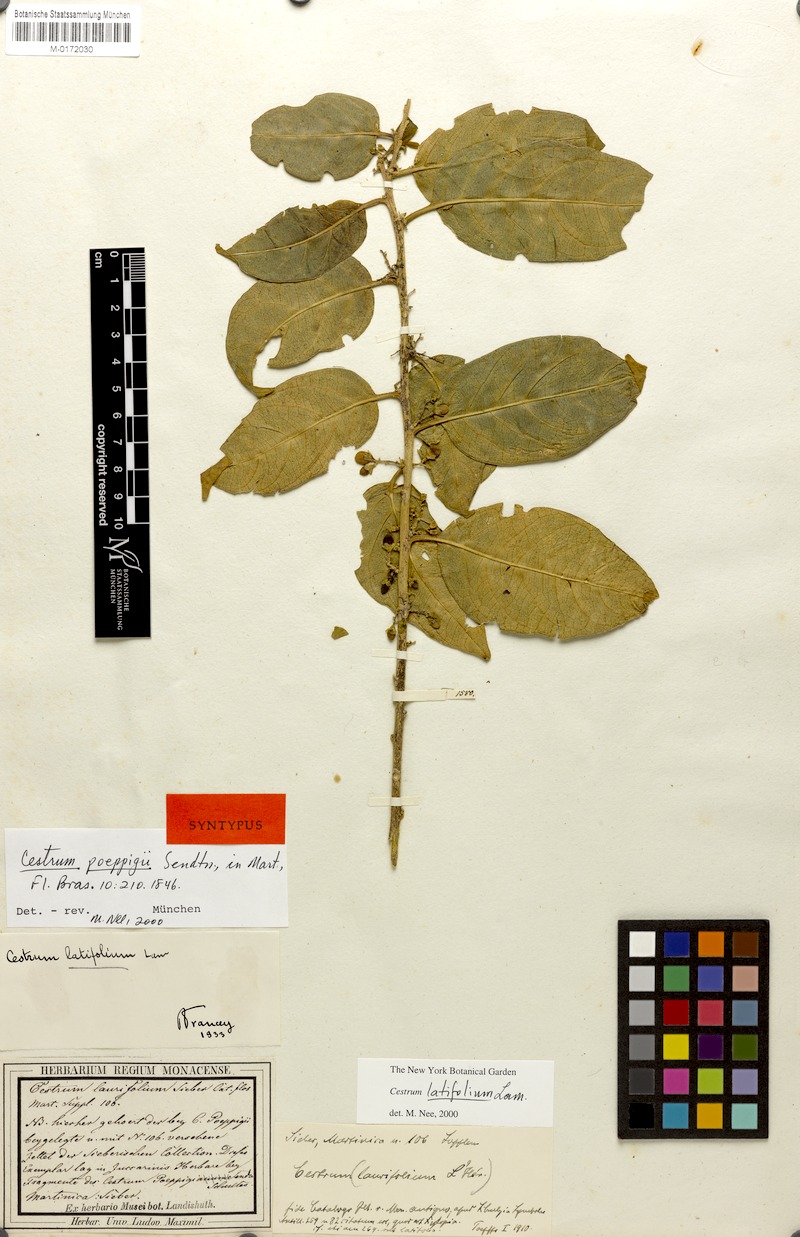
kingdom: Plantae
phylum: Tracheophyta
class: Magnoliopsida
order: Solanales
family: Solanaceae
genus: Cestrum
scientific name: Cestrum latifolium
